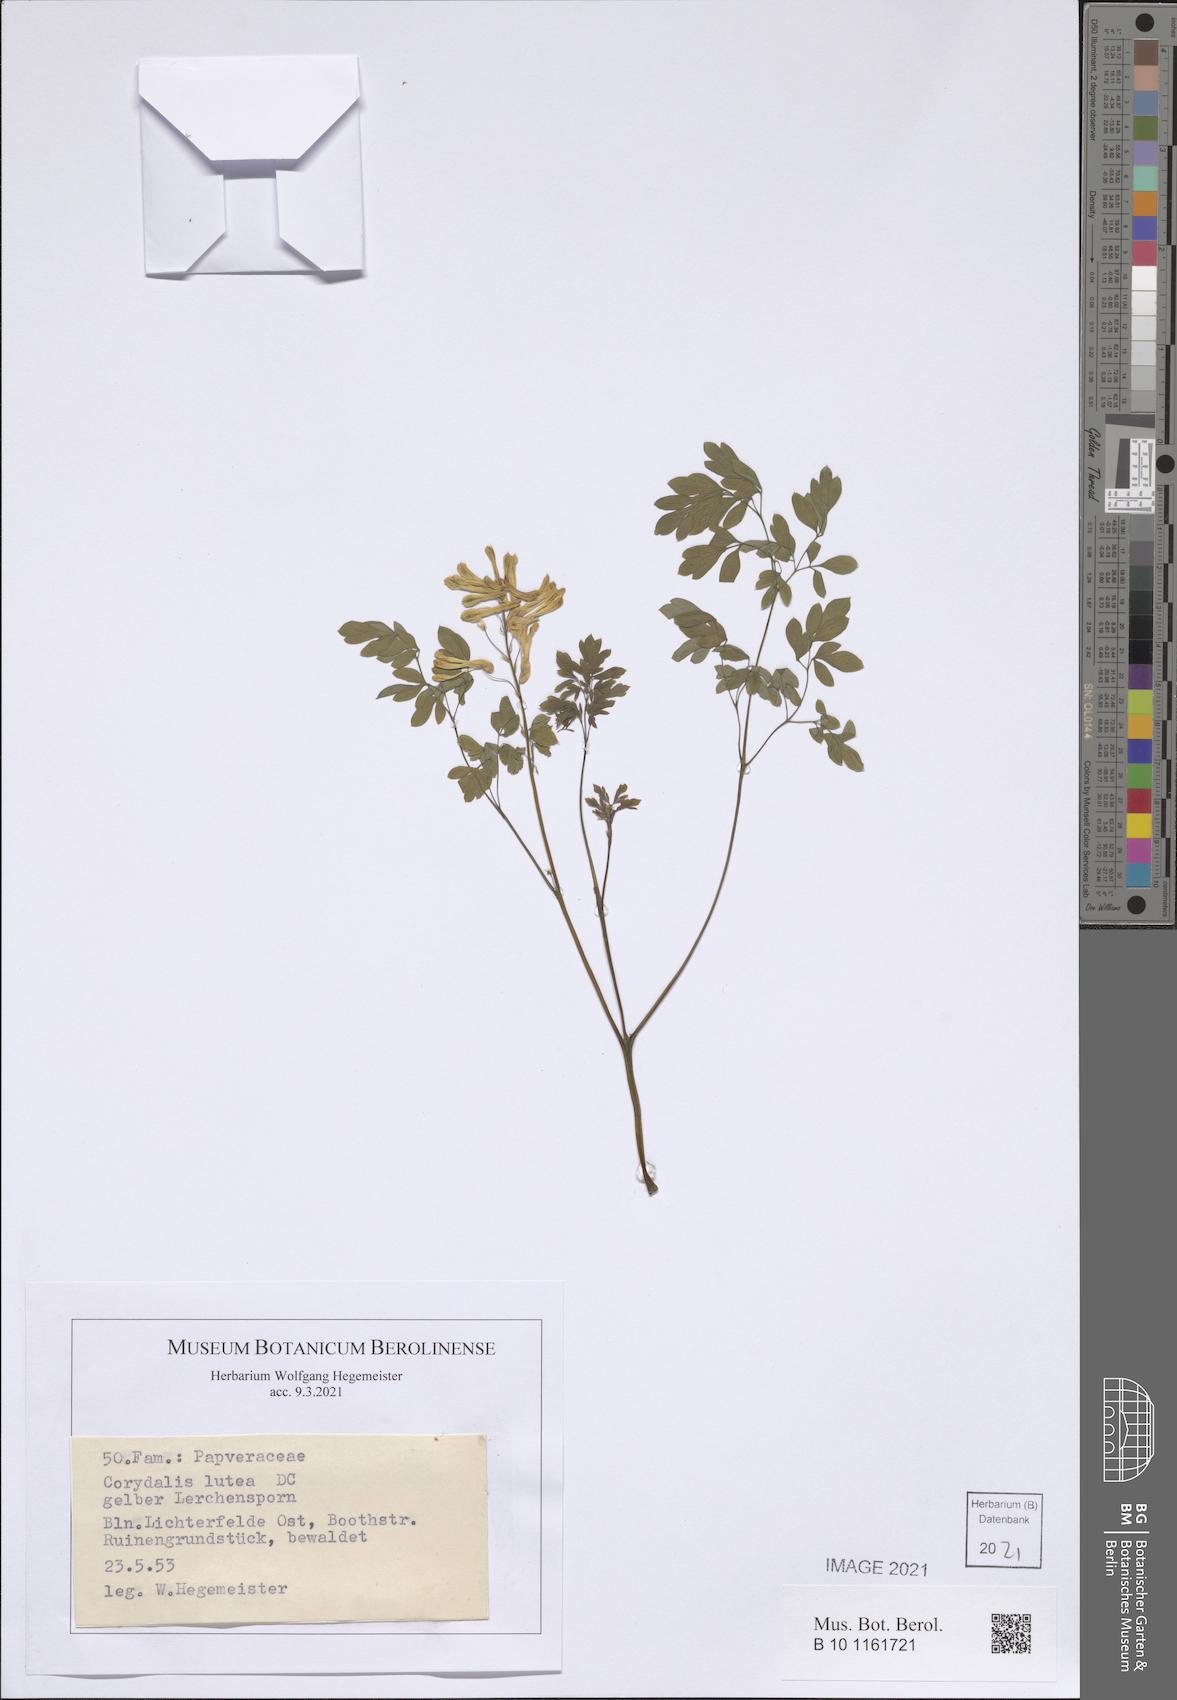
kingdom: Plantae
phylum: Tracheophyta
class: Magnoliopsida
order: Ranunculales
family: Papaveraceae
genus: Pseudofumaria
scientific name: Pseudofumaria lutea
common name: Yellow corydalis
